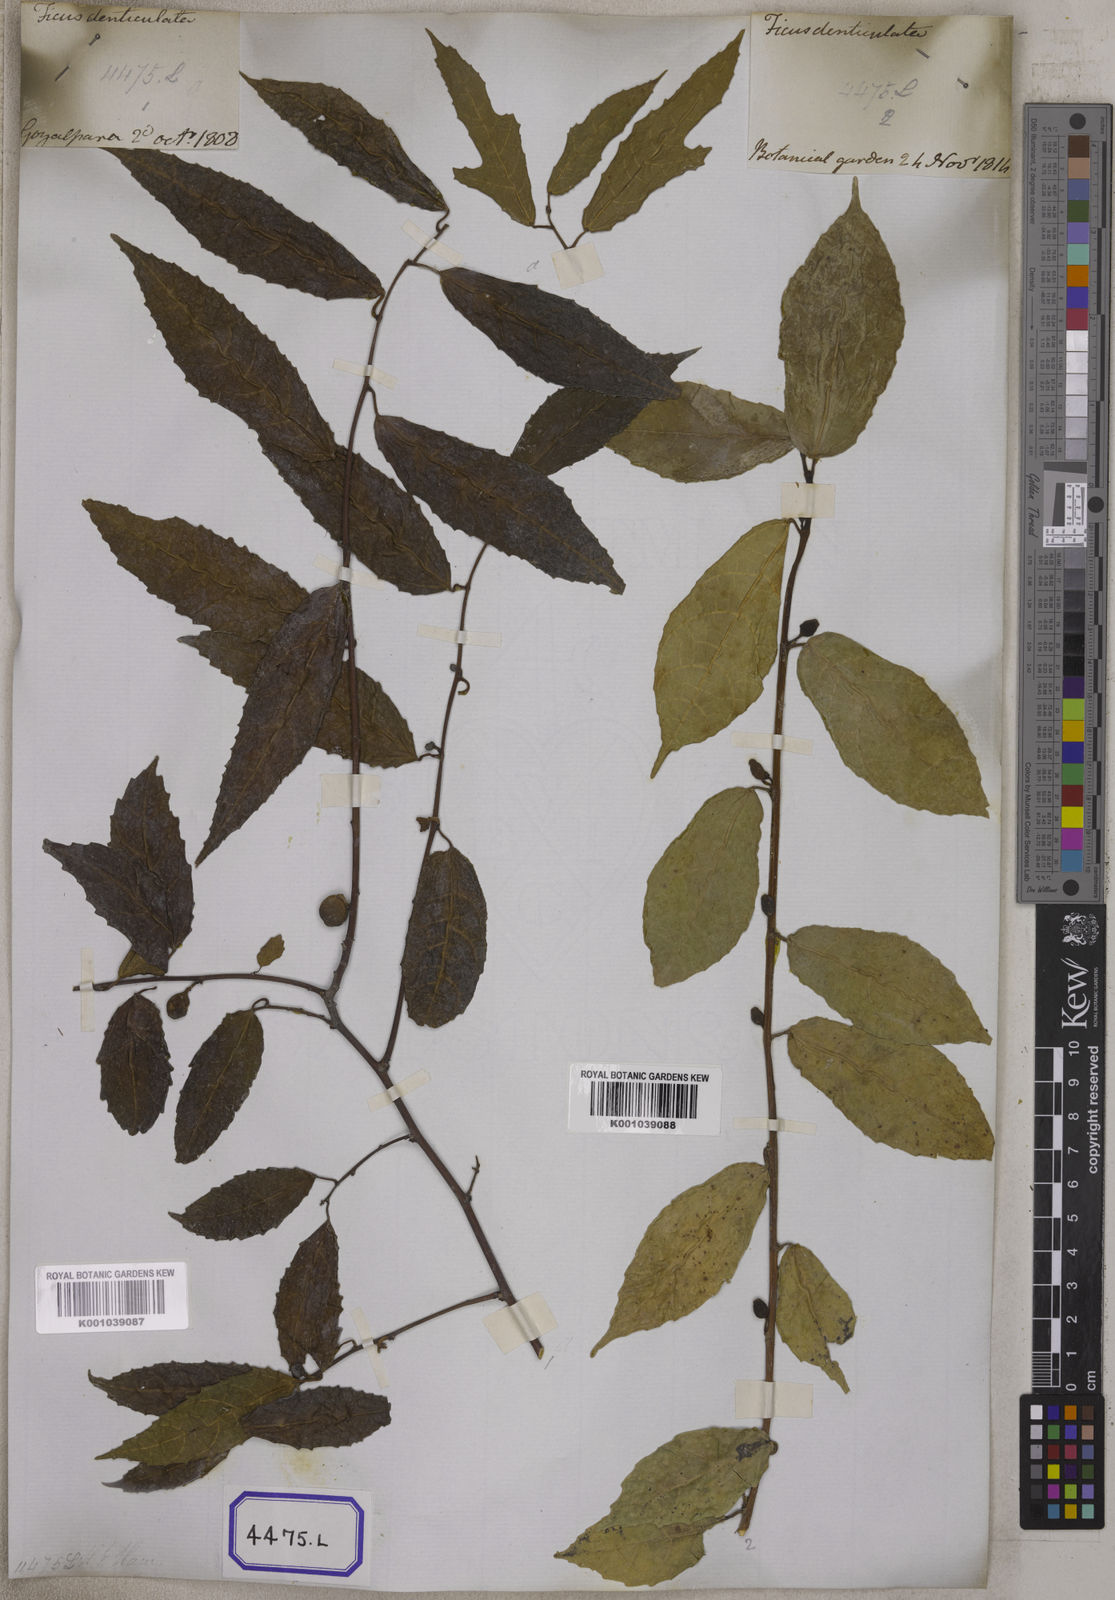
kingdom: Plantae
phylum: Tracheophyta
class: Magnoliopsida
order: Rosales
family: Moraceae
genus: Ficus
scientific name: Ficus
